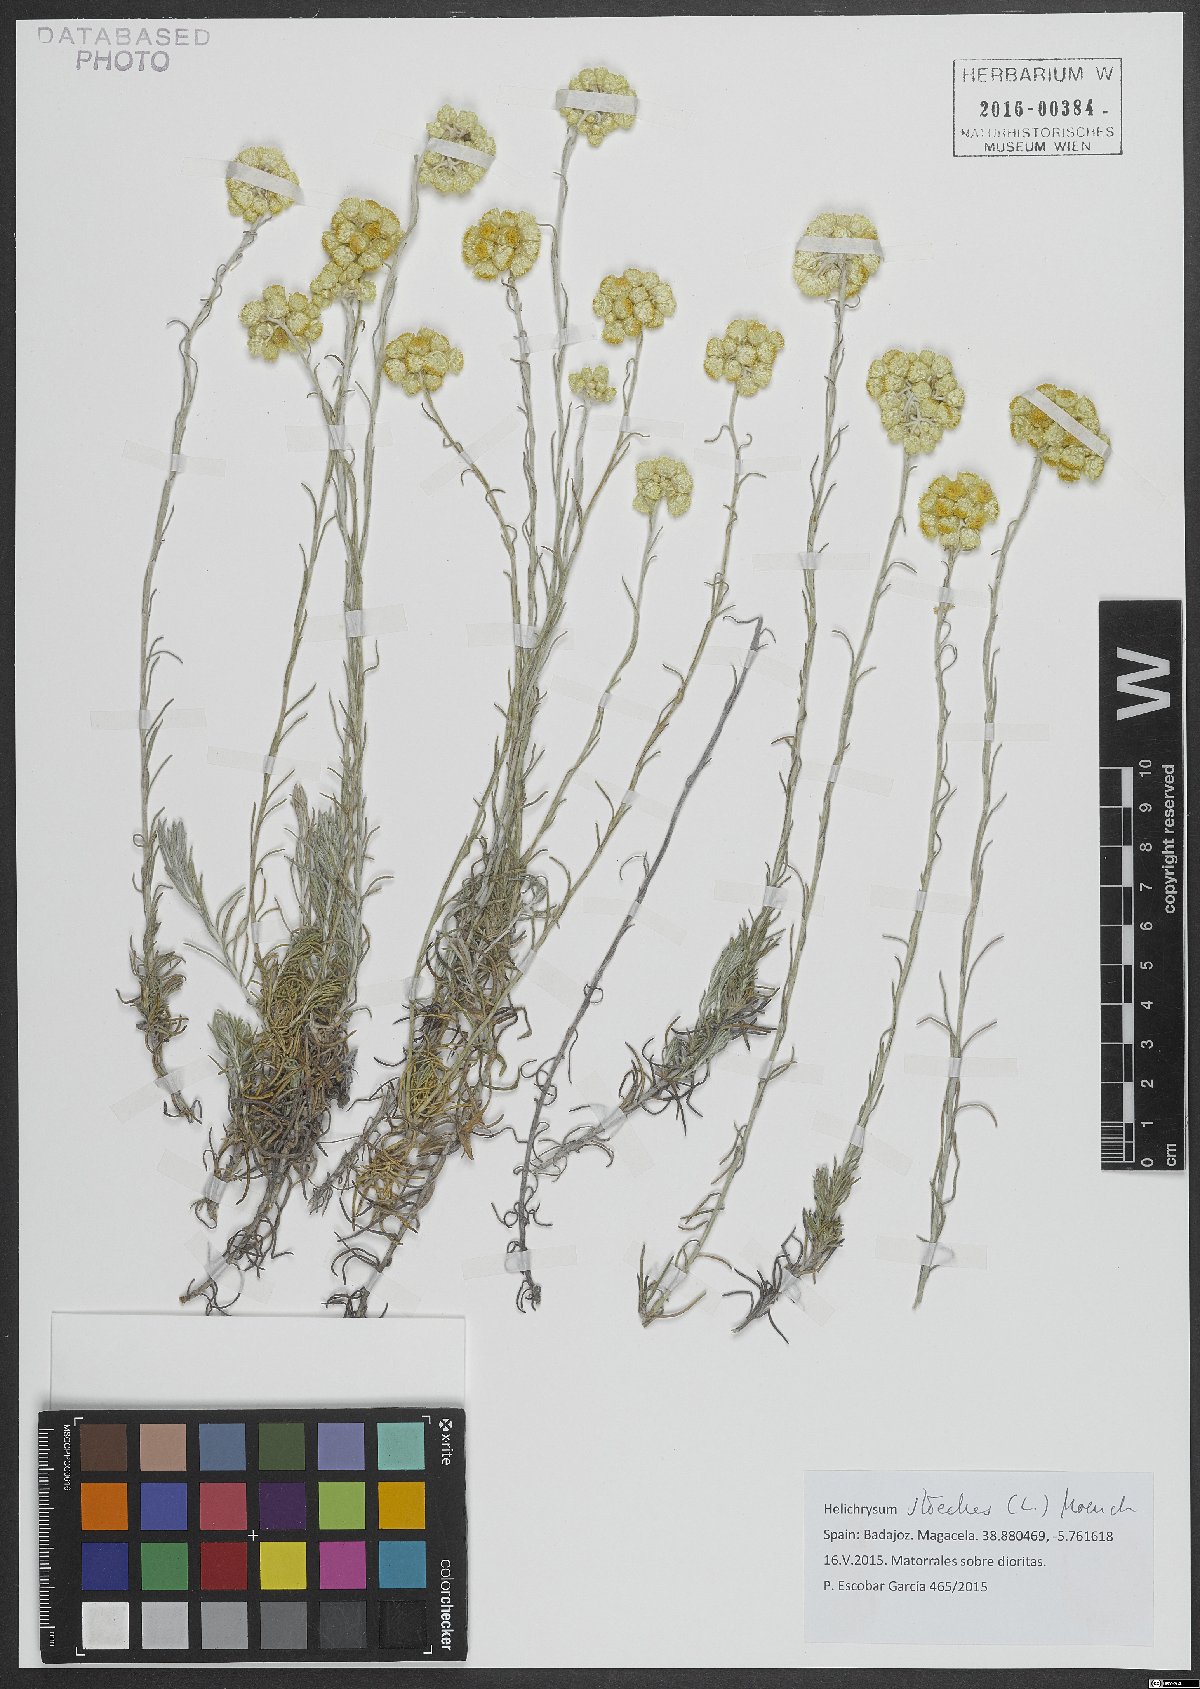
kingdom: Plantae
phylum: Tracheophyta
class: Magnoliopsida
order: Asterales
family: Asteraceae
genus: Helichrysum
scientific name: Helichrysum stoechas
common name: Goldilocks
